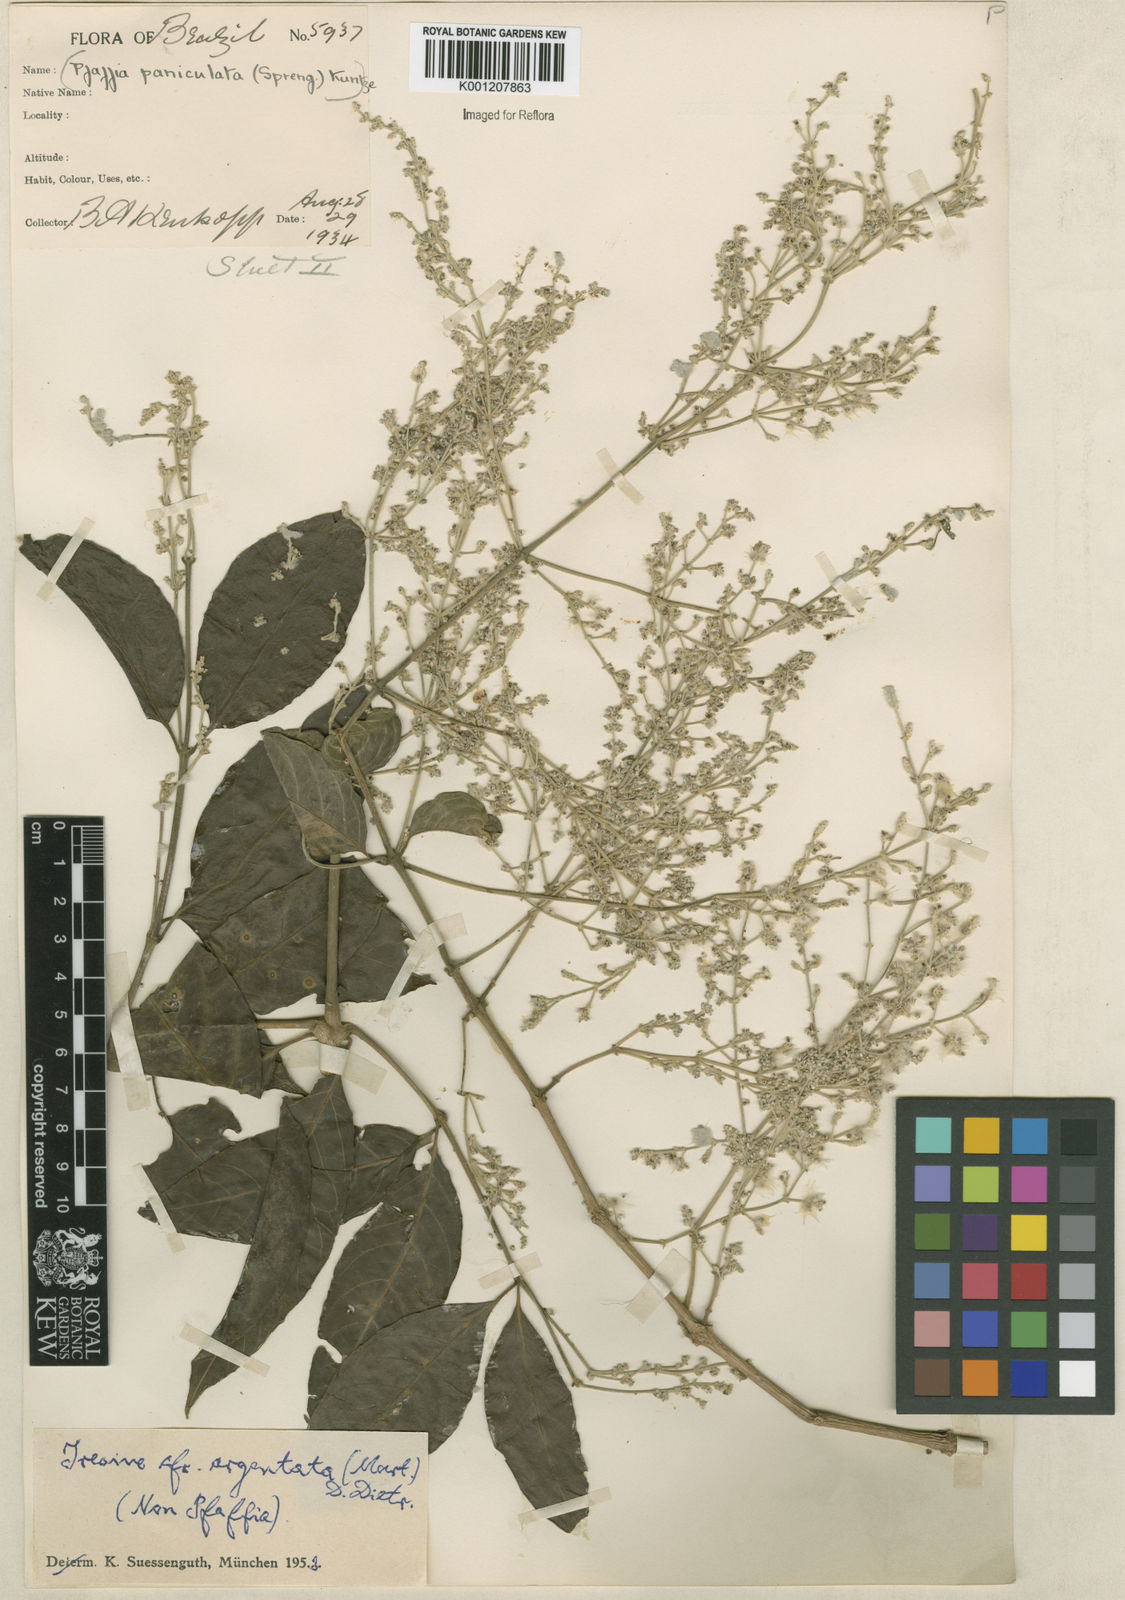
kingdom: Plantae
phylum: Tracheophyta
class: Magnoliopsida
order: Caryophyllales
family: Amaranthaceae
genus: Pedersenia
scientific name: Pedersenia argentata
